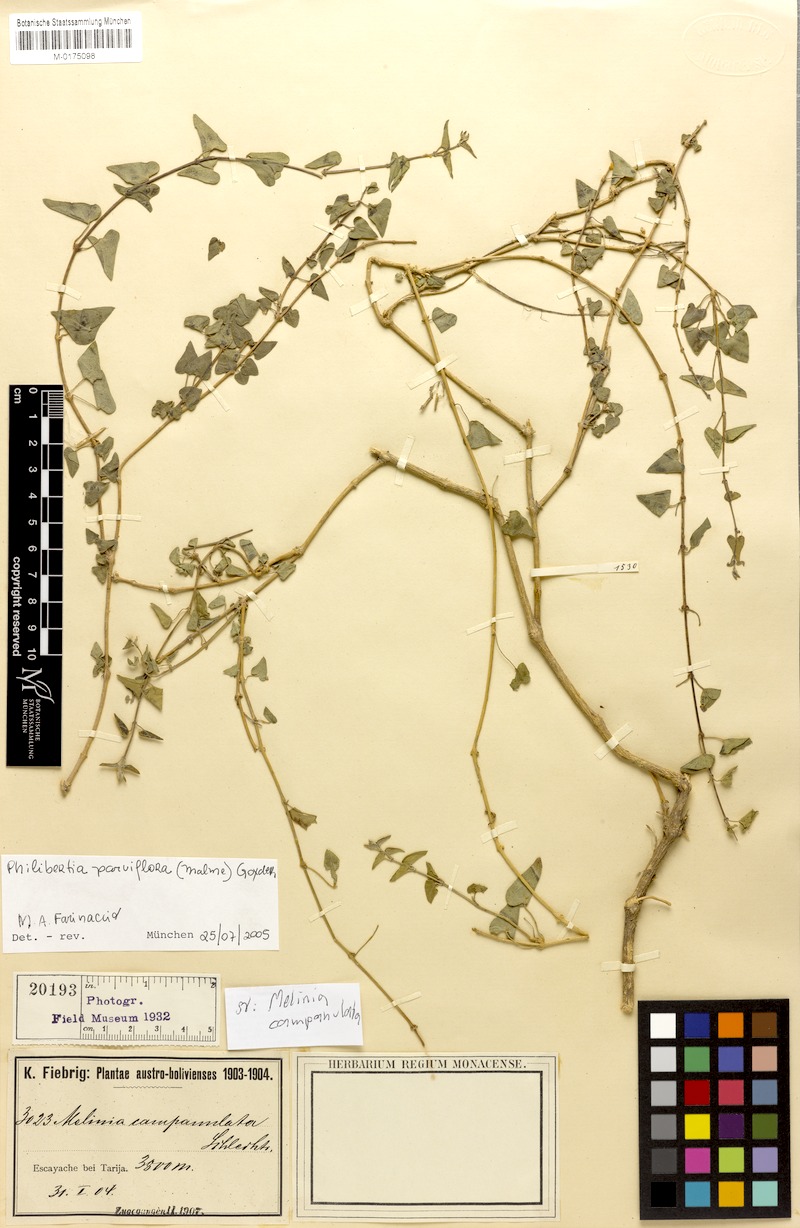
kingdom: Plantae
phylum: Tracheophyta
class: Magnoliopsida
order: Gentianales
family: Apocynaceae
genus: Philibertia
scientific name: Philibertia parviflora
